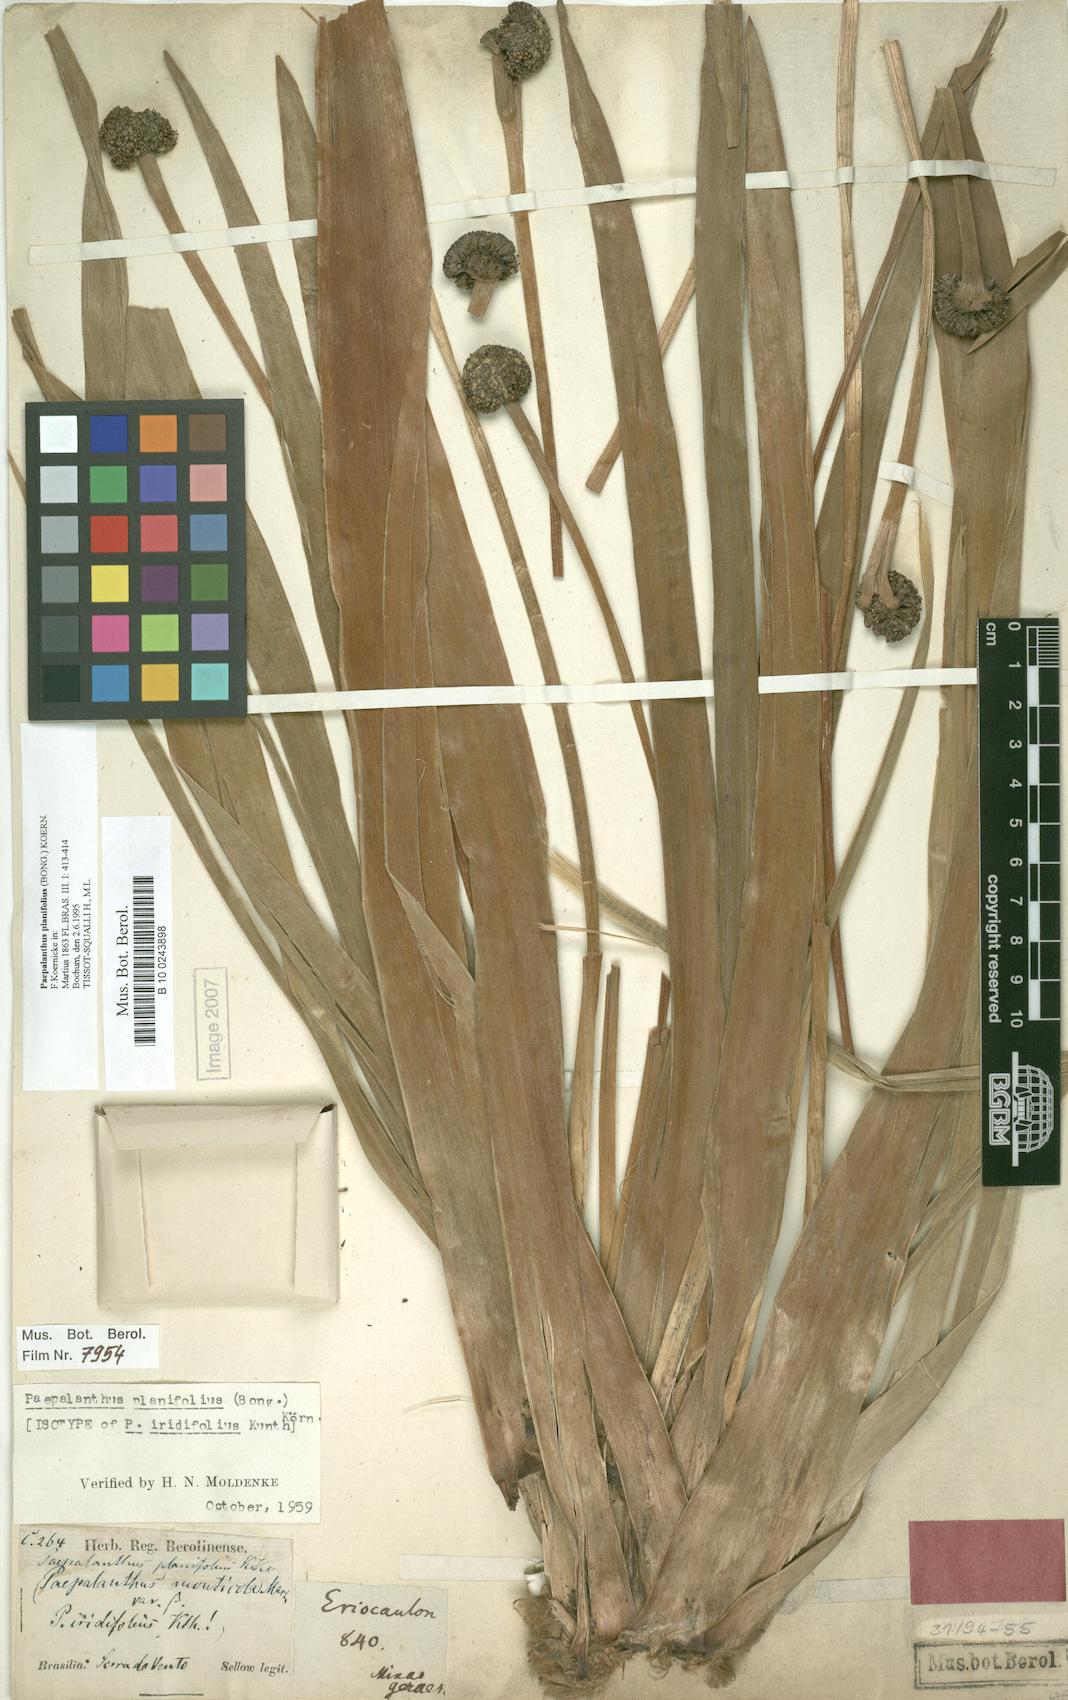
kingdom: Plantae
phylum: Tracheophyta
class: Liliopsida
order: Poales
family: Eriocaulaceae
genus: Paepalanthus
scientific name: Paepalanthus planifolius
